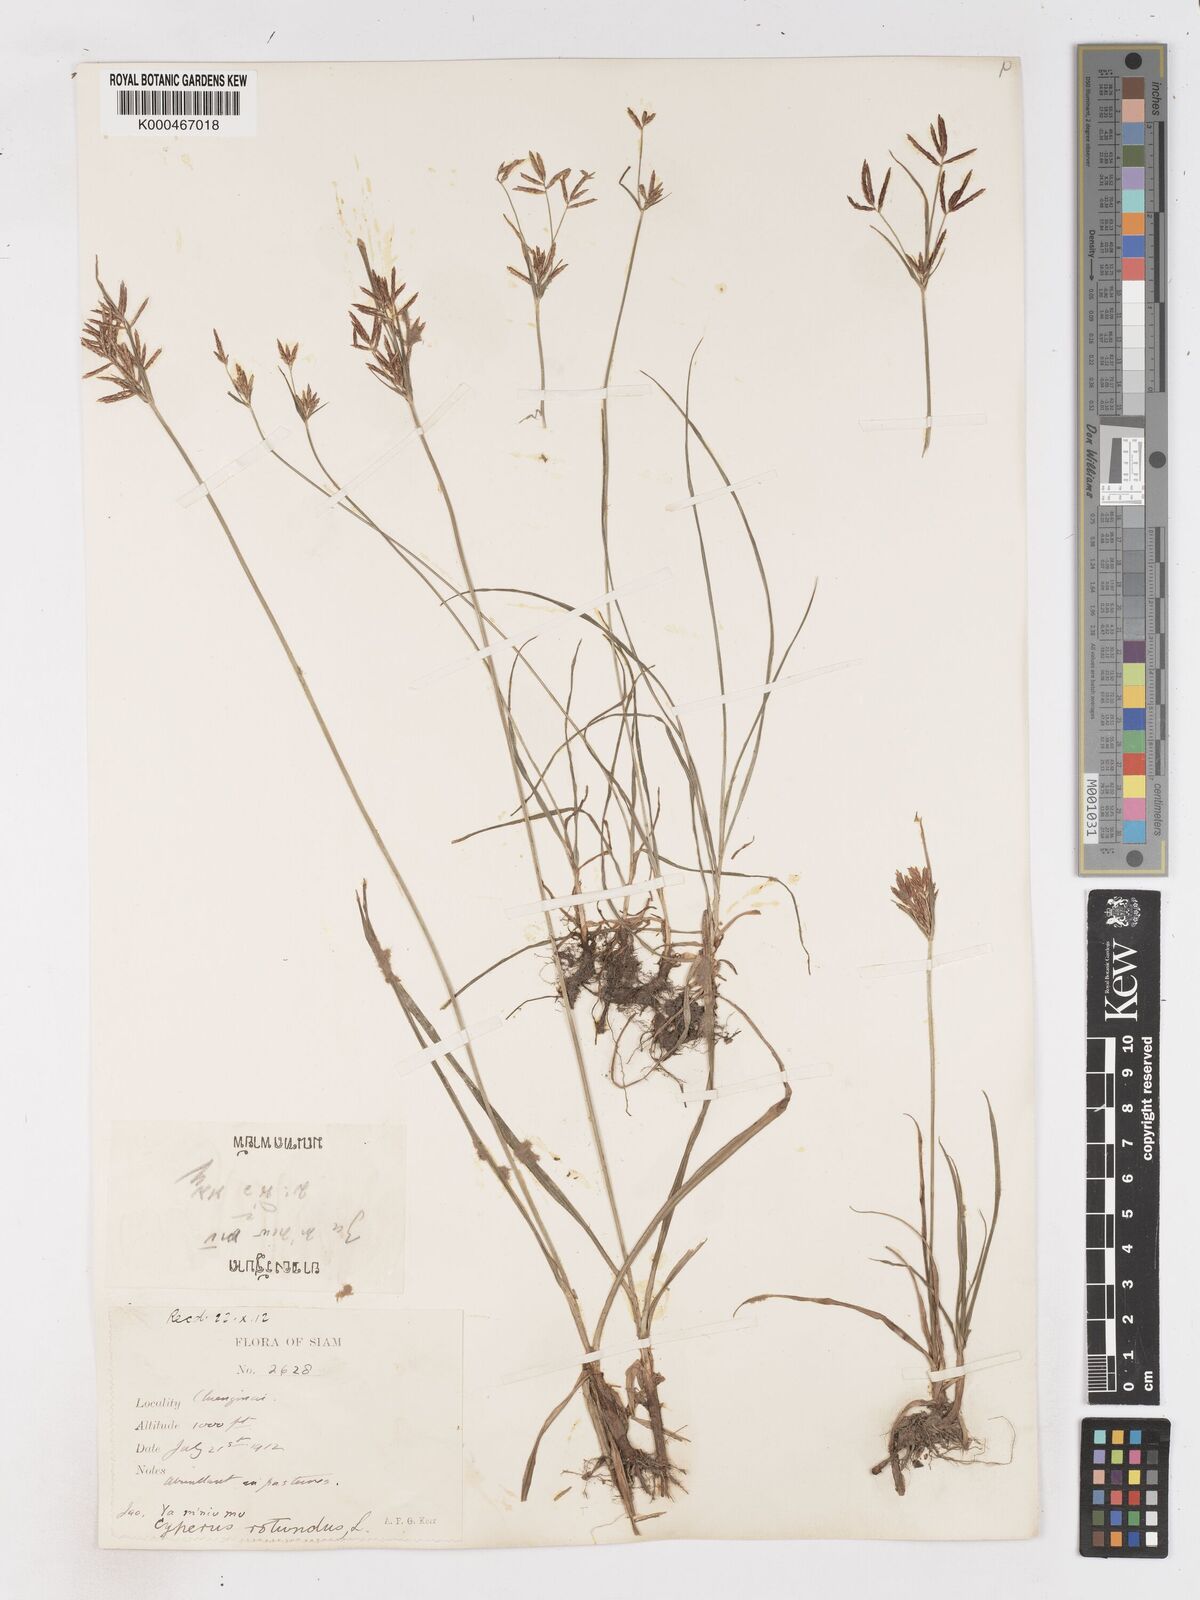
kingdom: Plantae
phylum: Tracheophyta
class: Liliopsida
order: Poales
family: Cyperaceae
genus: Cyperus
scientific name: Cyperus rotundus
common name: Nutgrass
